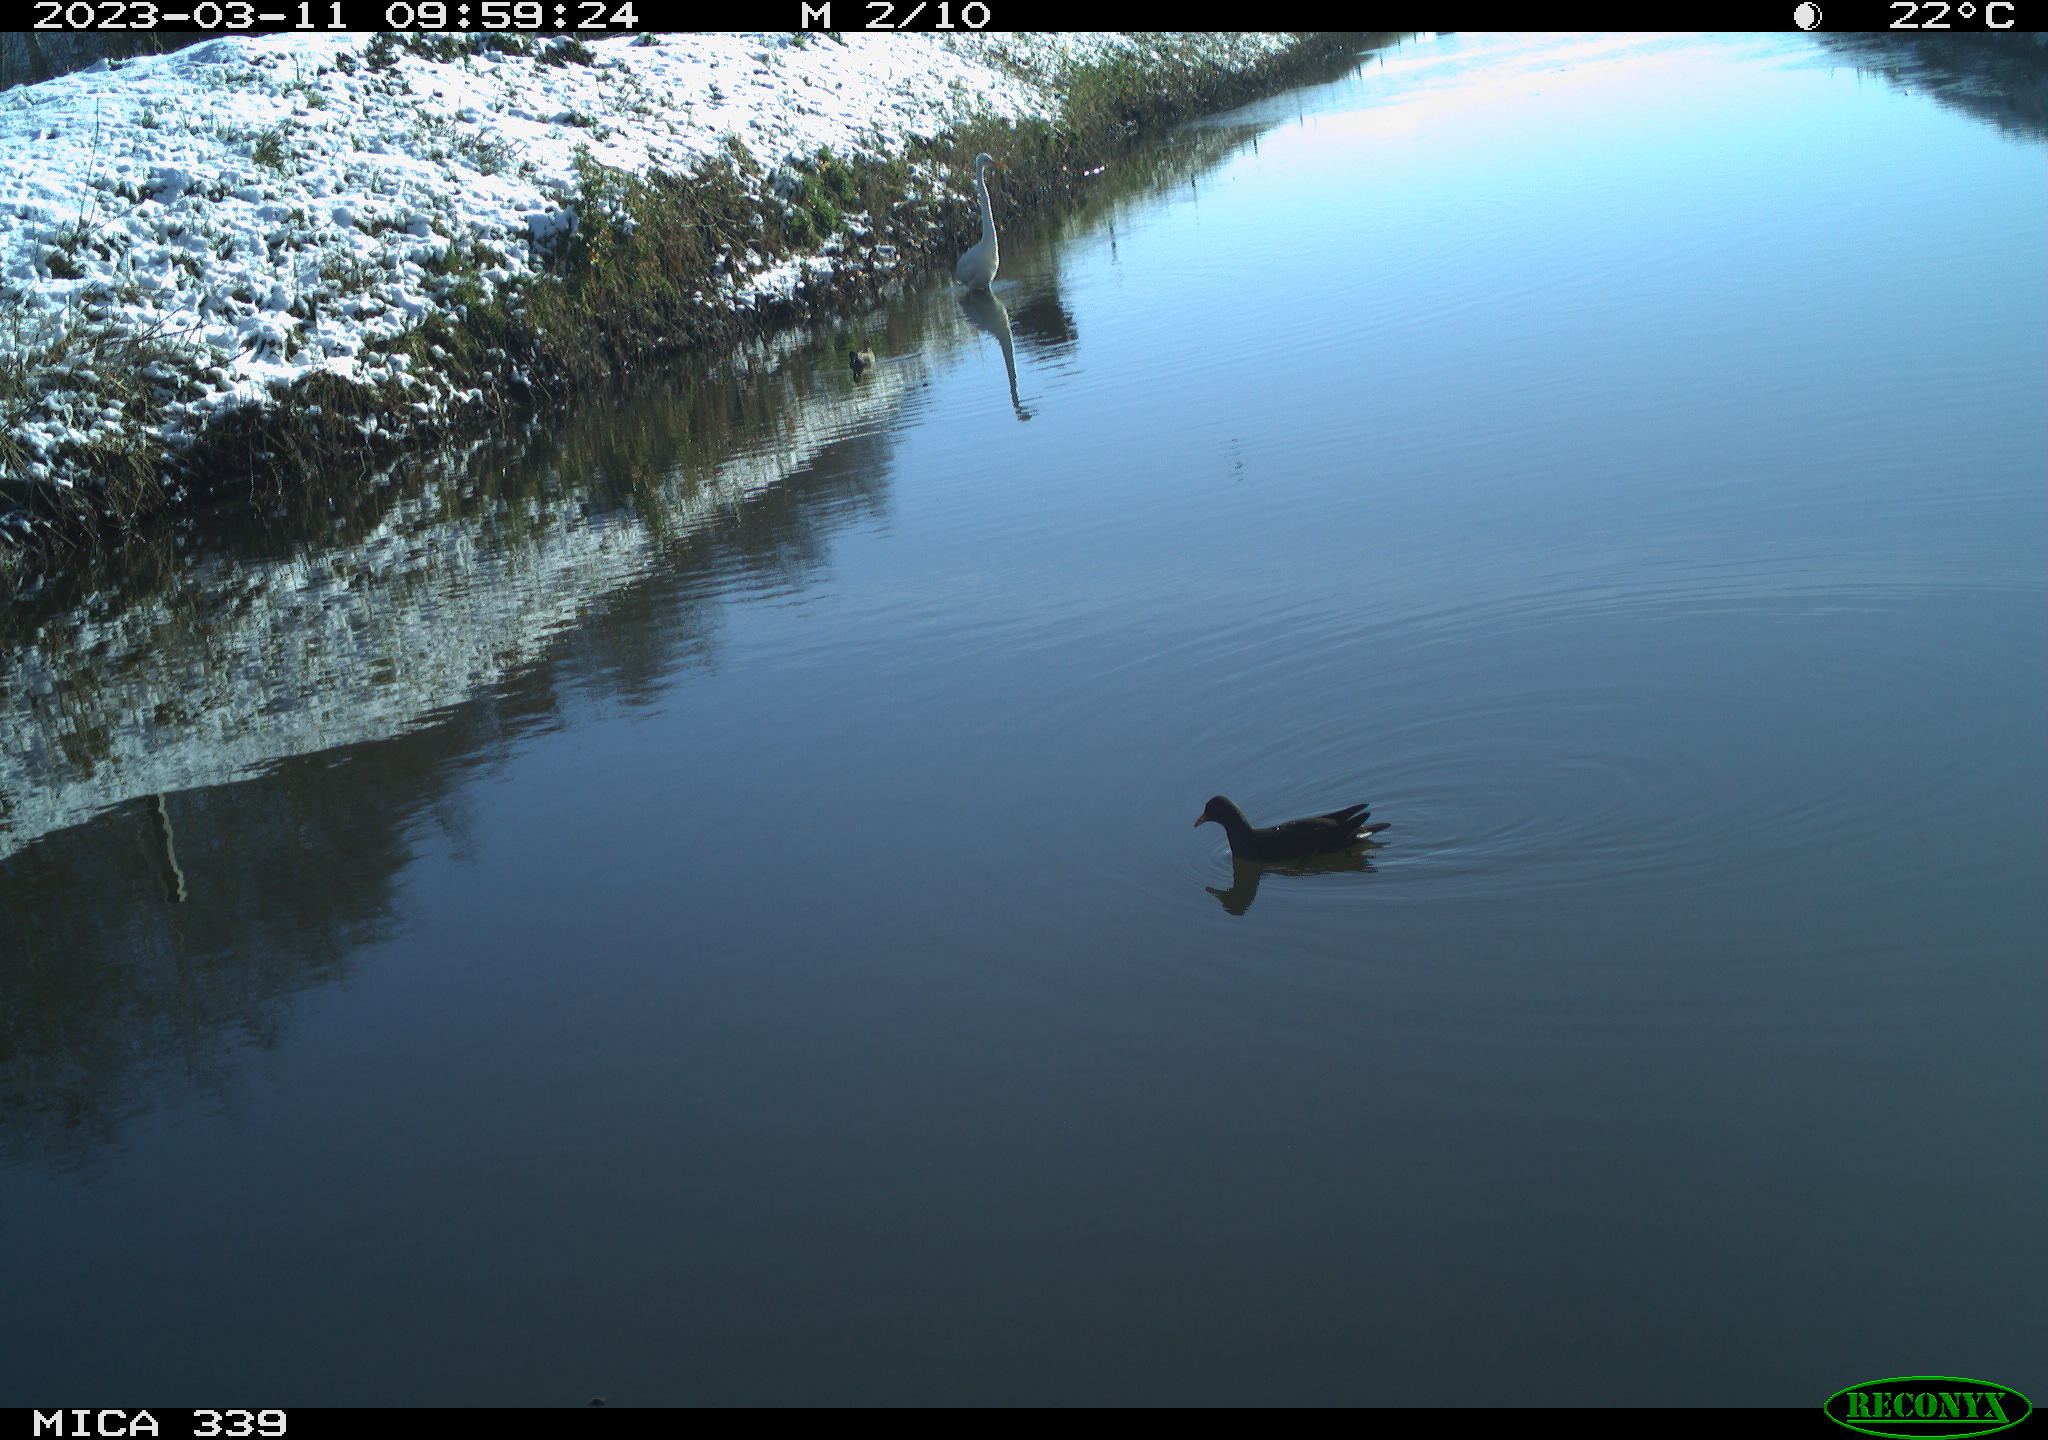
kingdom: Animalia
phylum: Chordata
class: Aves
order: Pelecaniformes
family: Ardeidae
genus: Ardea
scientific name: Ardea alba
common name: Great egret
